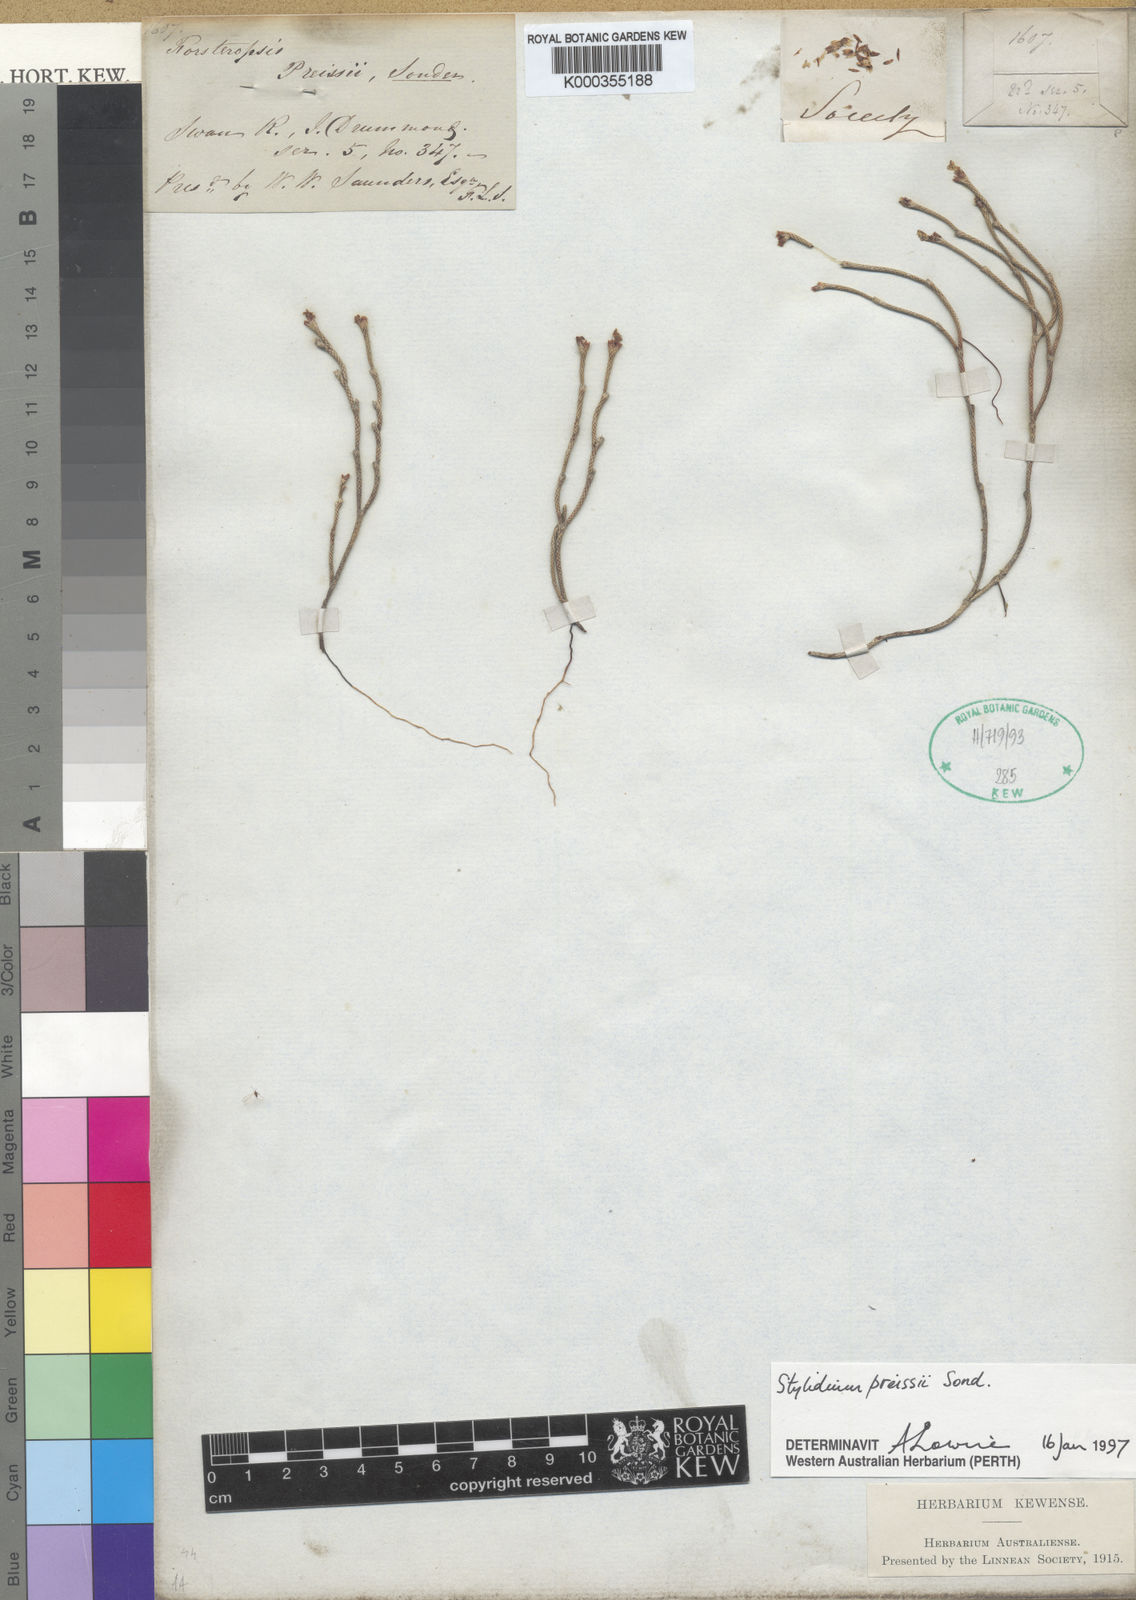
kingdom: Plantae
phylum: Tracheophyta
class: Magnoliopsida
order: Asterales
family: Stylidiaceae
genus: Stylidium
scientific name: Stylidium preissii
